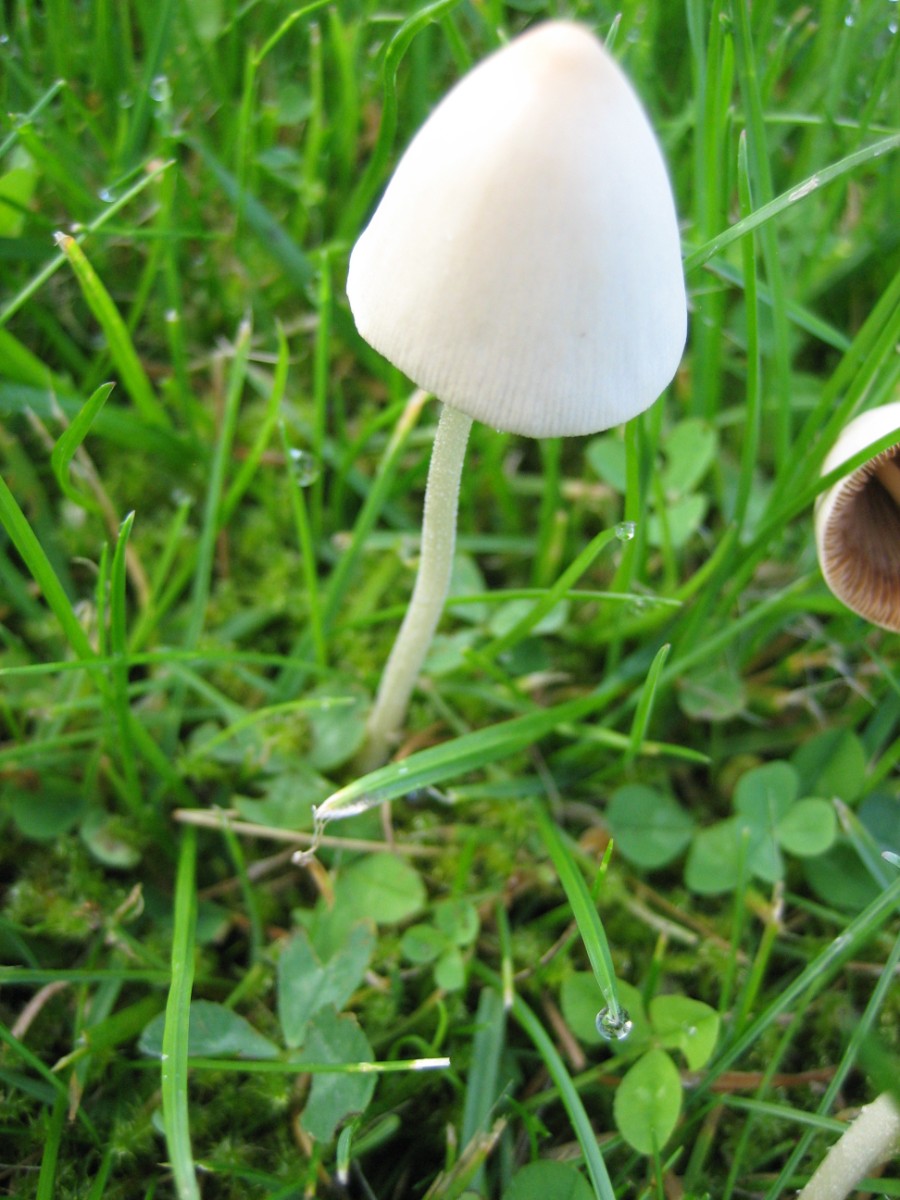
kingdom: Fungi
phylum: Basidiomycota
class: Agaricomycetes
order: Agaricales
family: Bolbitiaceae
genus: Conocybe
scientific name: Conocybe apala
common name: mælkehvid keglehat
